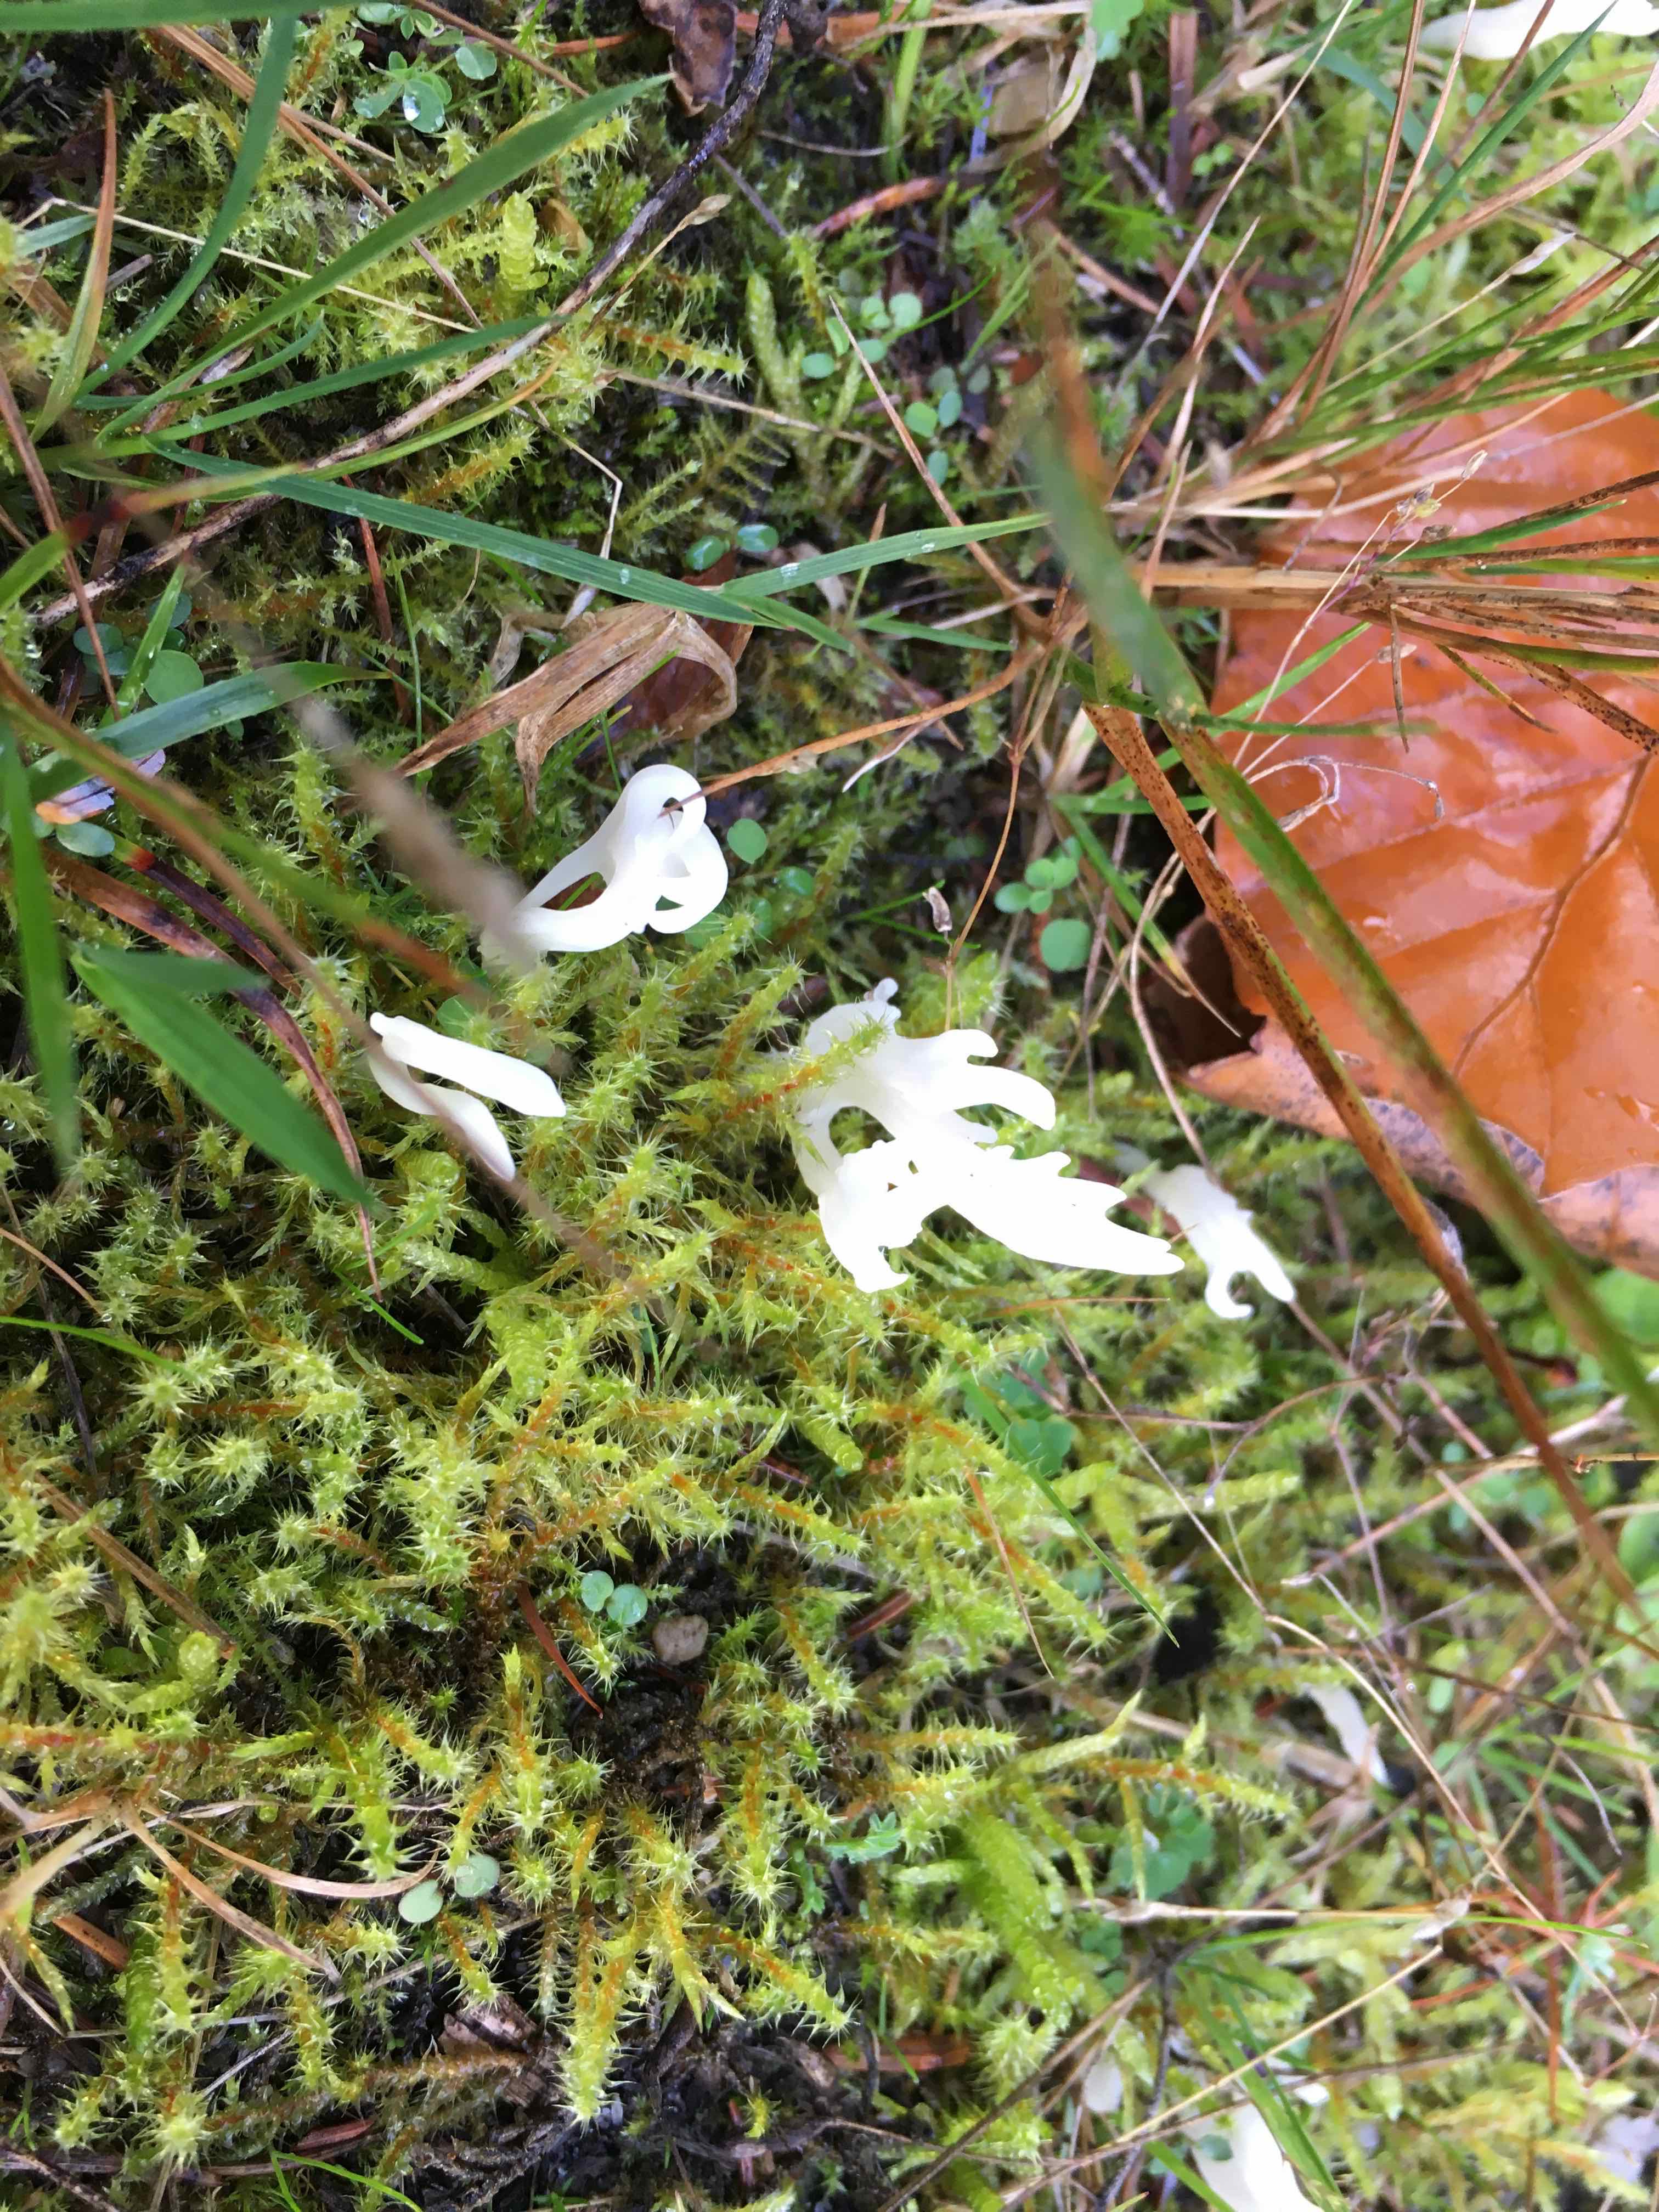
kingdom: Fungi
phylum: Basidiomycota
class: Agaricomycetes
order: Cantharellales
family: Hydnaceae
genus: Clavulina
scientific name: Clavulina
